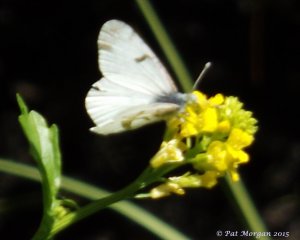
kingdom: Animalia
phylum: Arthropoda
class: Insecta
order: Lepidoptera
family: Pieridae
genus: Euchloe
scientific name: Euchloe olympia
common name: Olympia Marble
